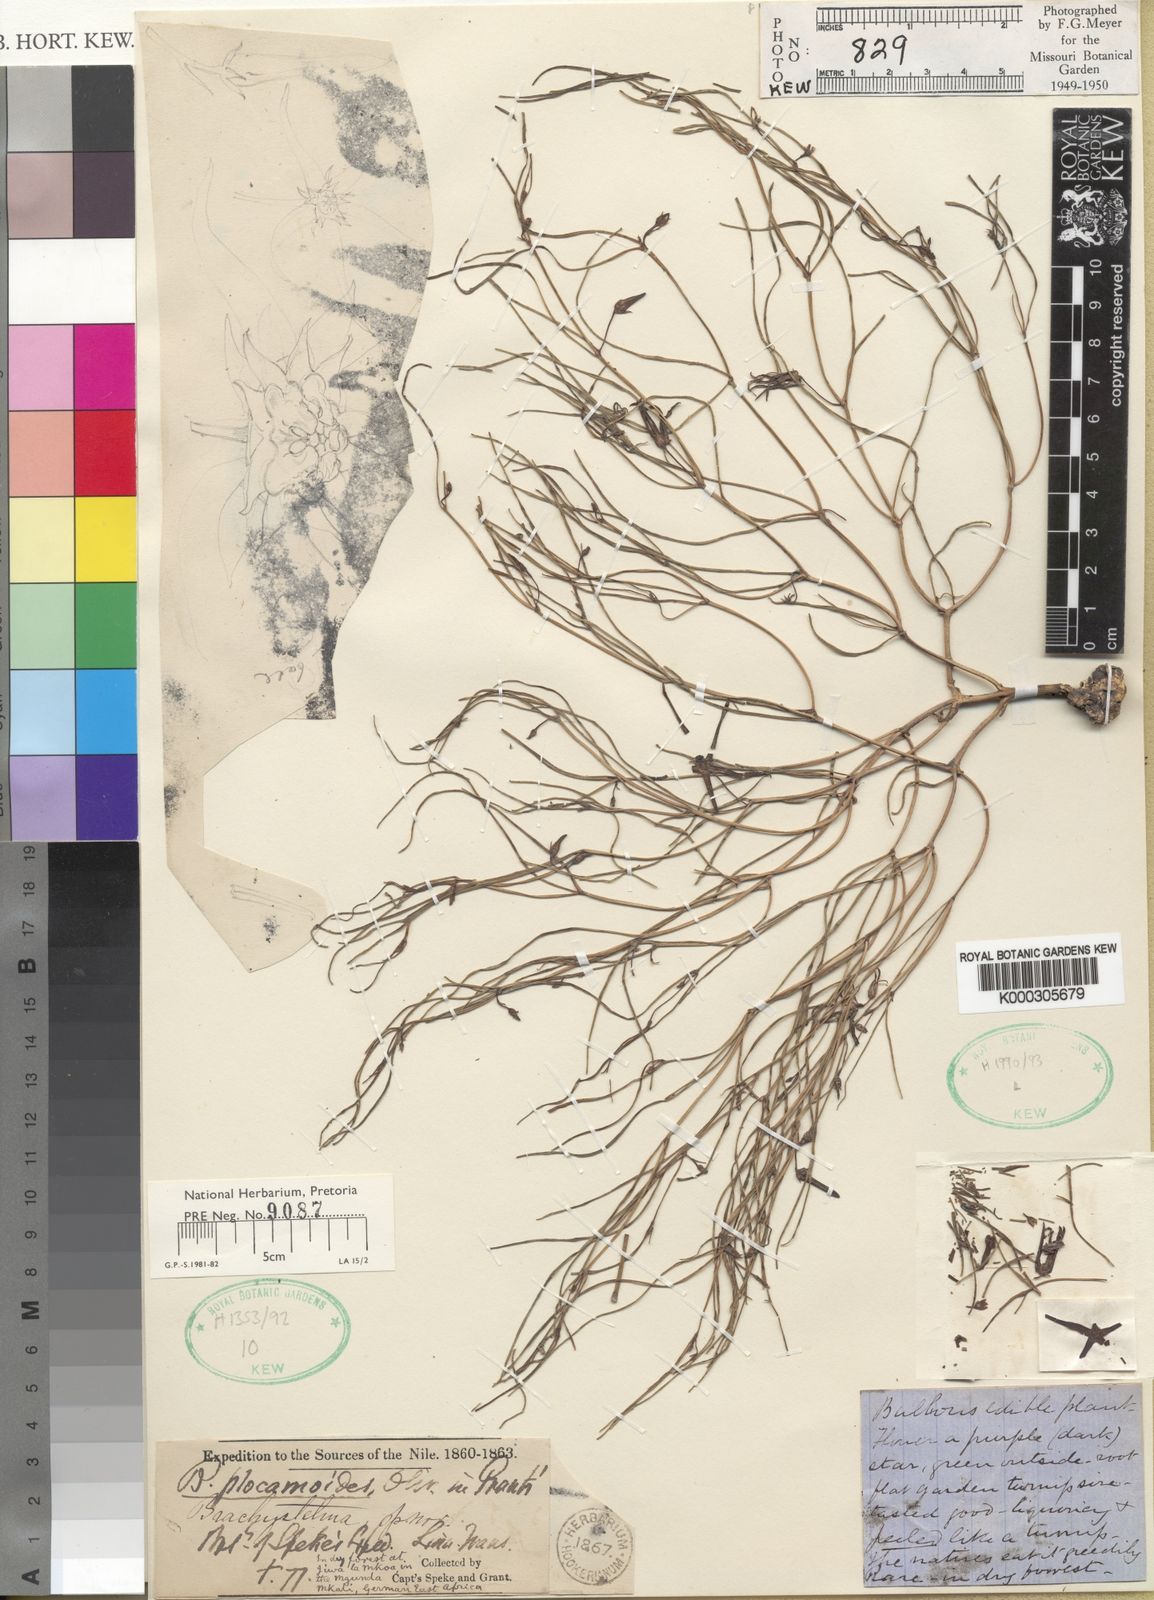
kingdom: Plantae
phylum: Tracheophyta
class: Magnoliopsida
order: Gentianales
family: Apocynaceae
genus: Ceropegia
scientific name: Ceropegia plocamoides
